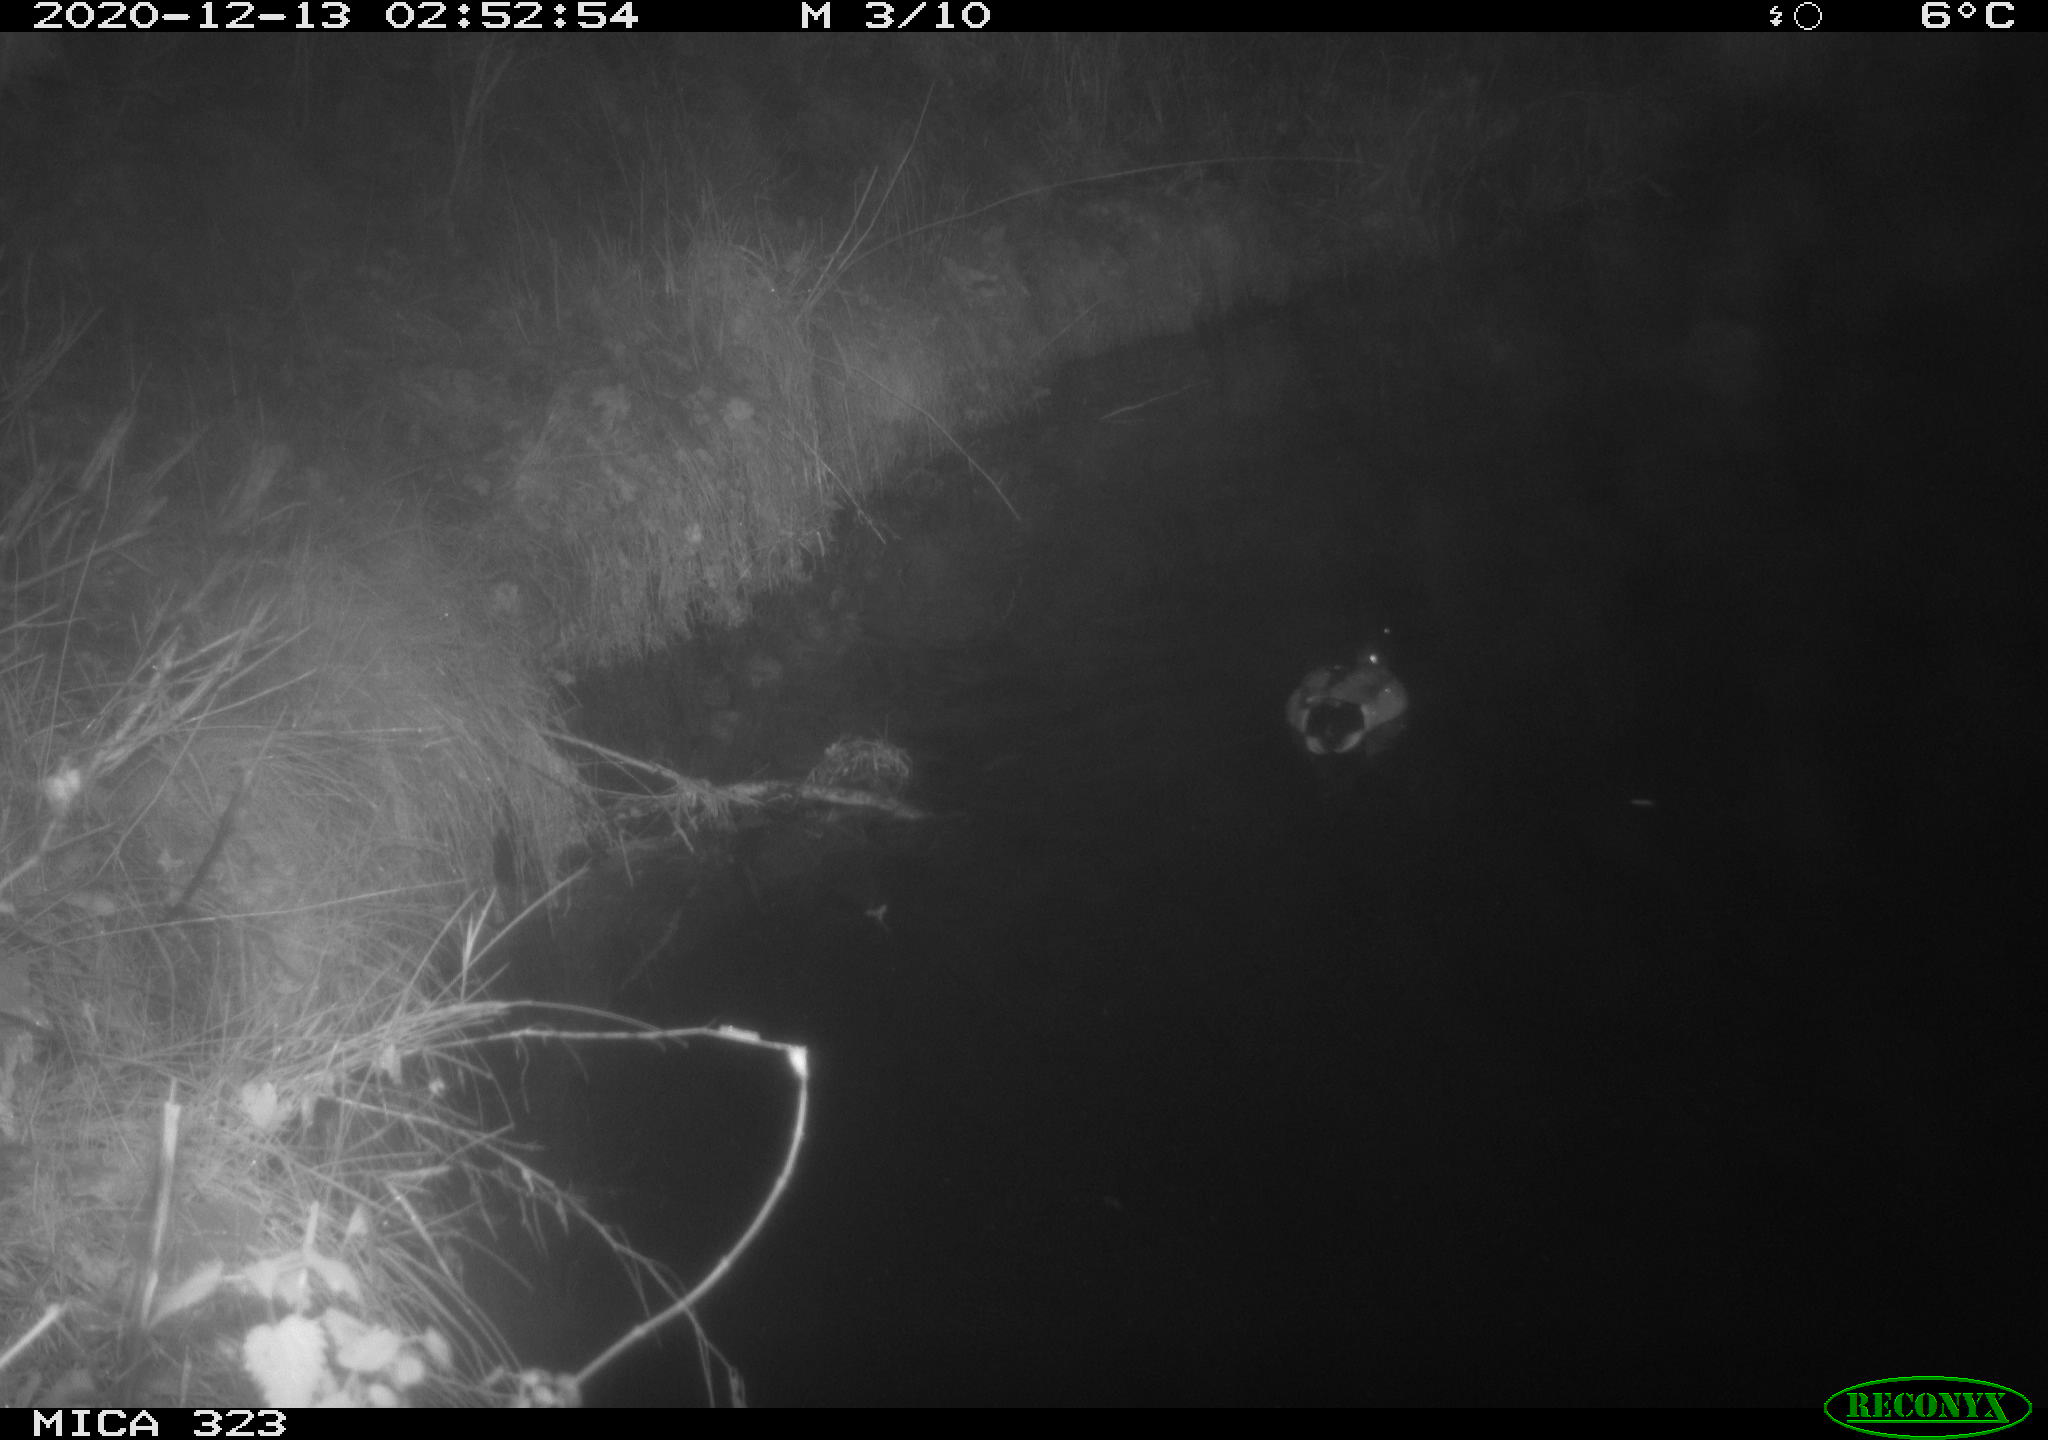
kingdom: Animalia
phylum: Chordata
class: Aves
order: Anseriformes
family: Anatidae
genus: Anas
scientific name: Anas platyrhynchos
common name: Mallard
